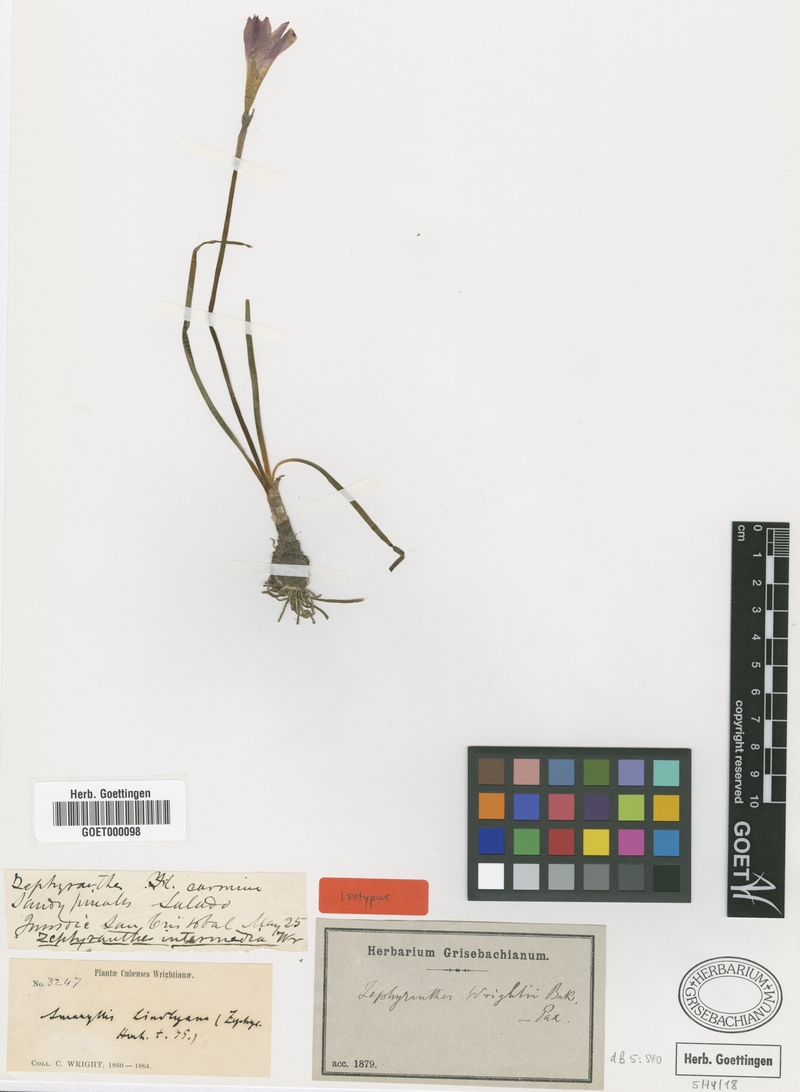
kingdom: Plantae
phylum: Tracheophyta
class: Liliopsida
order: Asparagales
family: Amaryllidaceae
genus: Zephyranthes
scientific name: Zephyranthes wrightii
